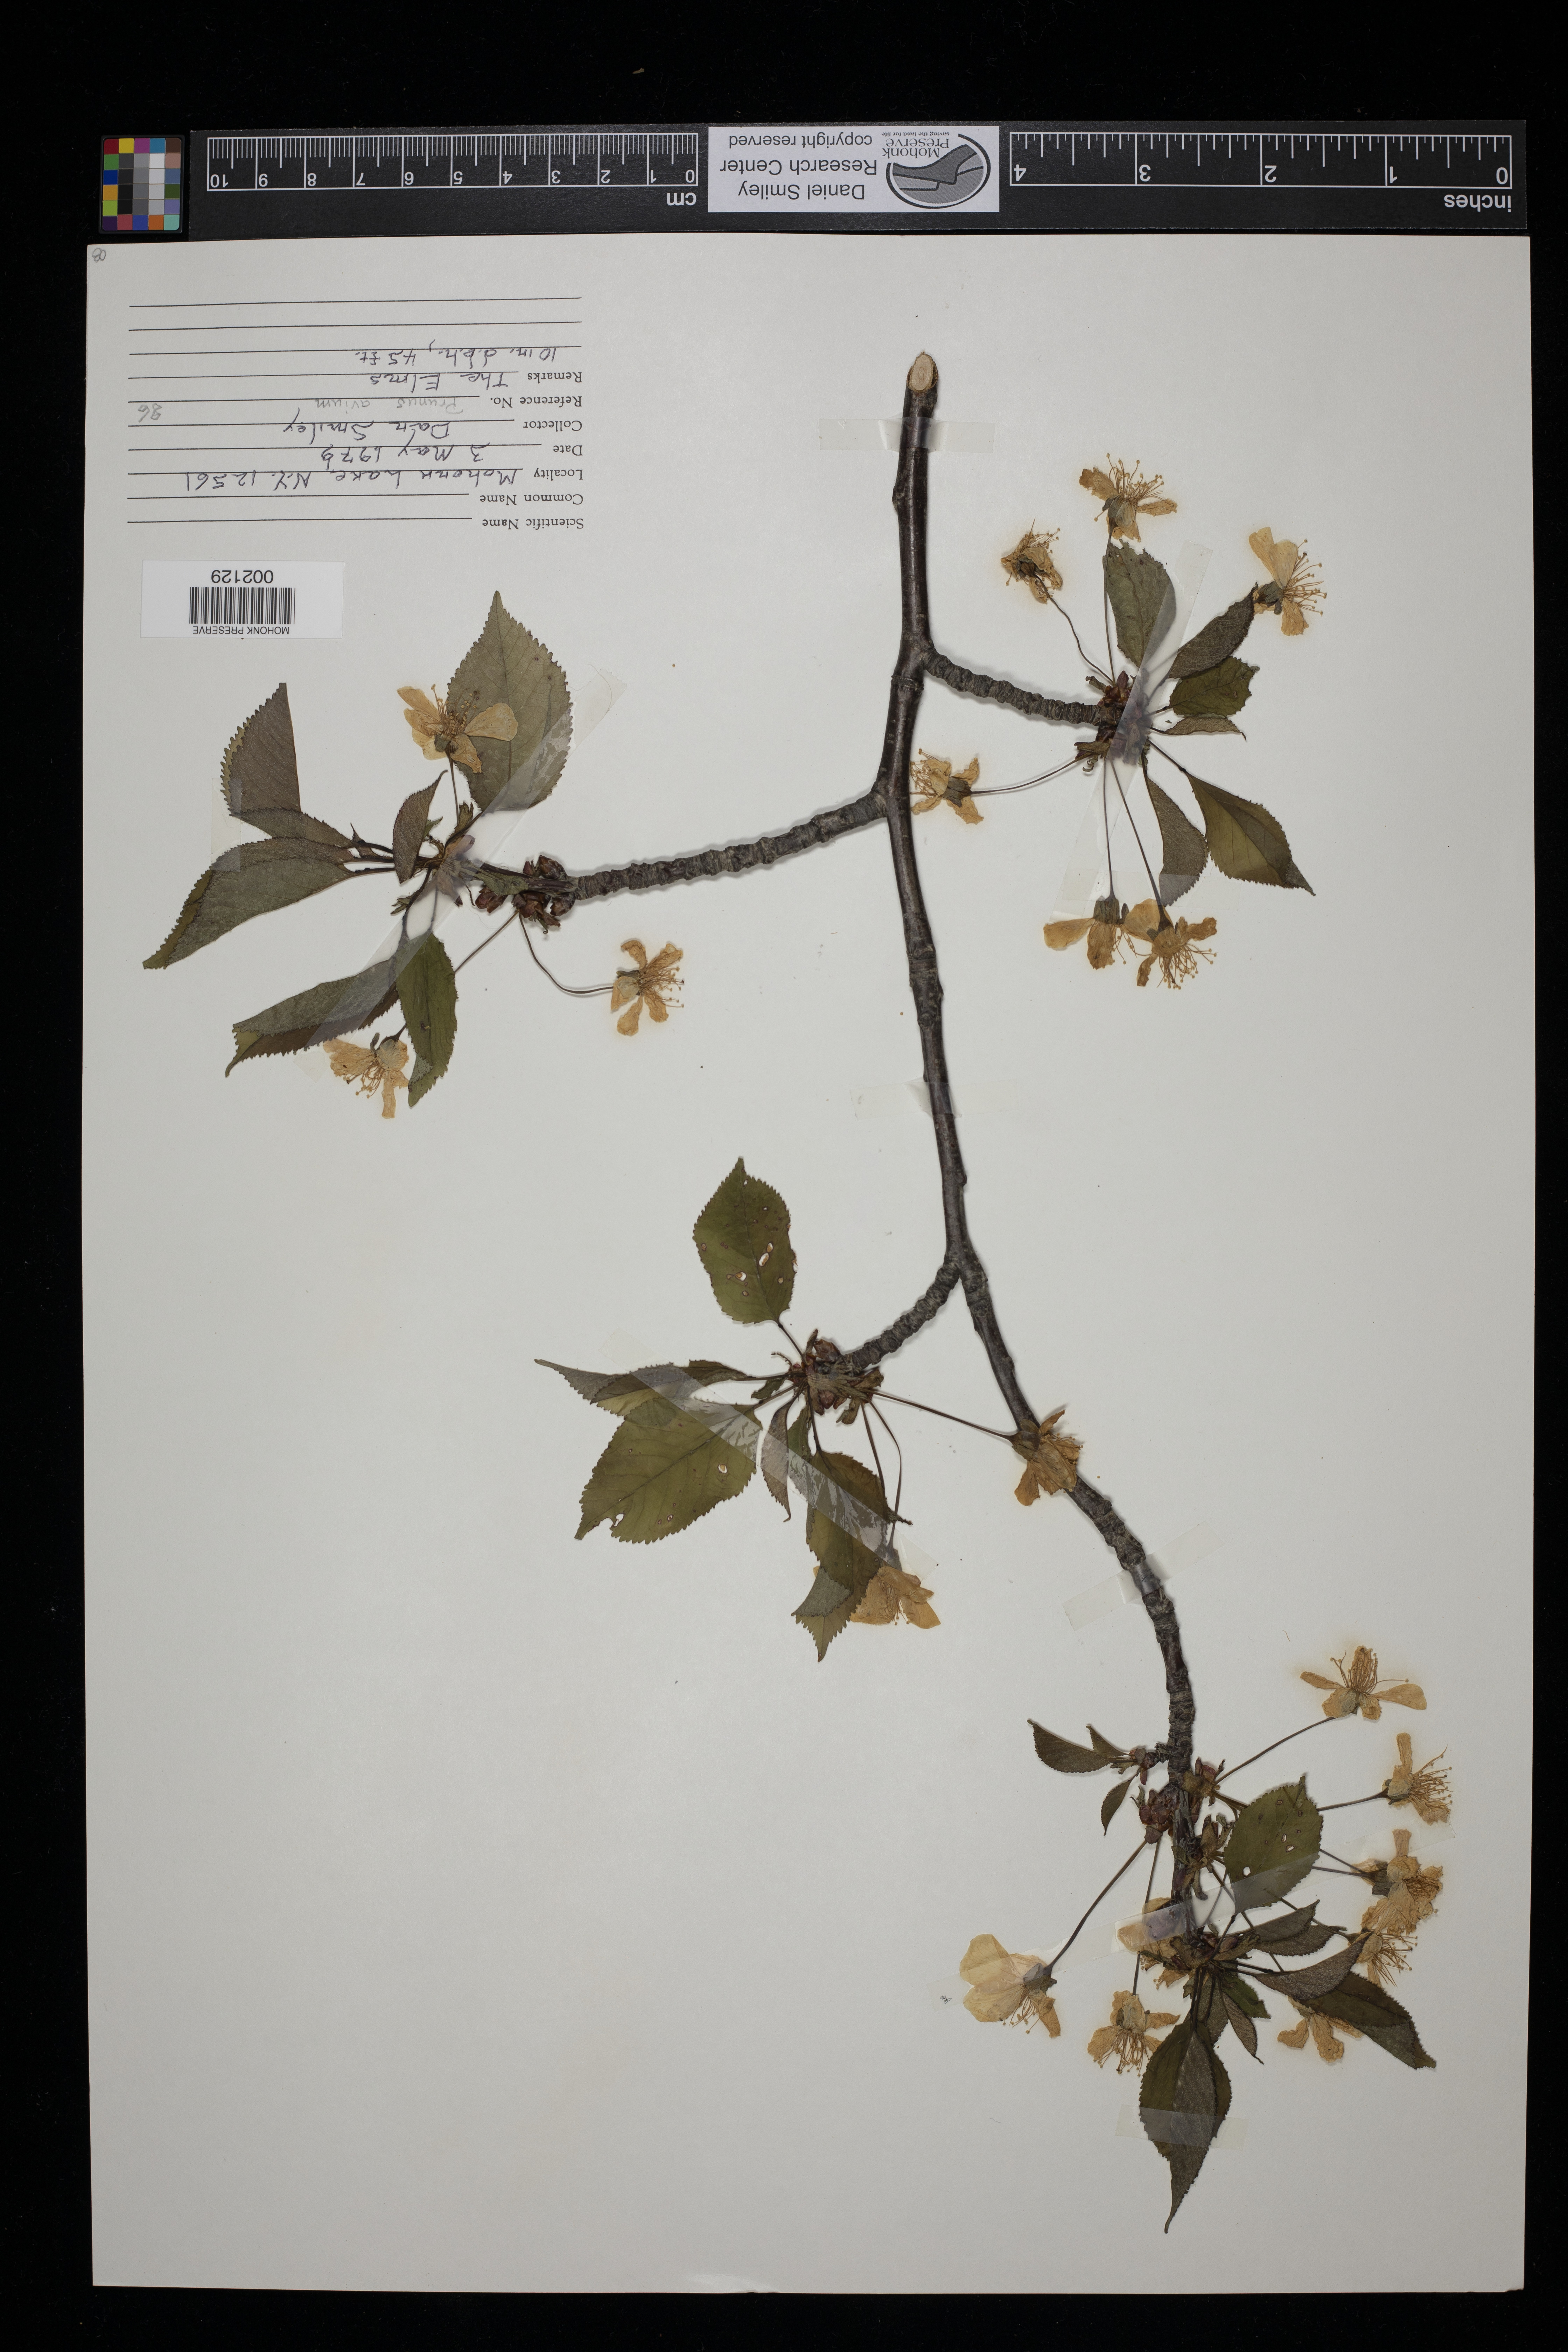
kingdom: Plantae
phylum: Tracheophyta
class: Magnoliopsida
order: Rosales
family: Rosaceae
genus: Prunus
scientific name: Prunus avium
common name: Sweet cherry
